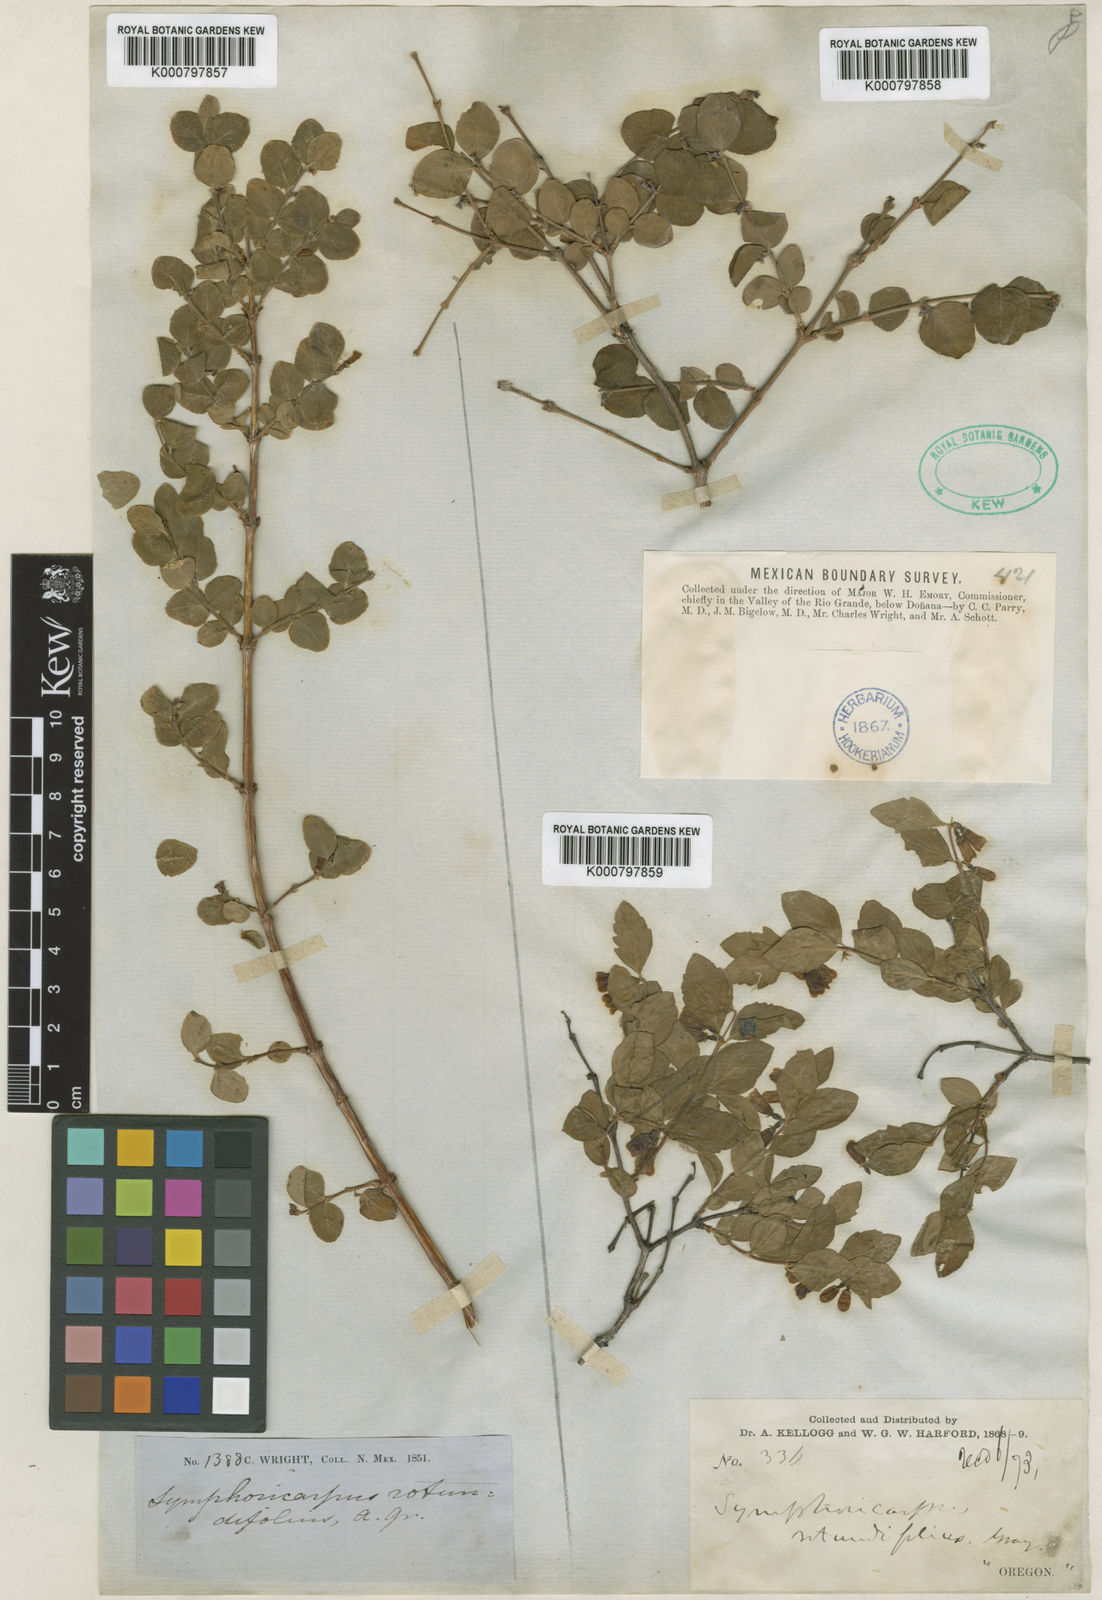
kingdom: Plantae
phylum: Tracheophyta
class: Magnoliopsida
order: Dipsacales
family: Caprifoliaceae
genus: Symphoricarpos
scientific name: Symphoricarpos rotundifolius
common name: Round-leaved snowberry
